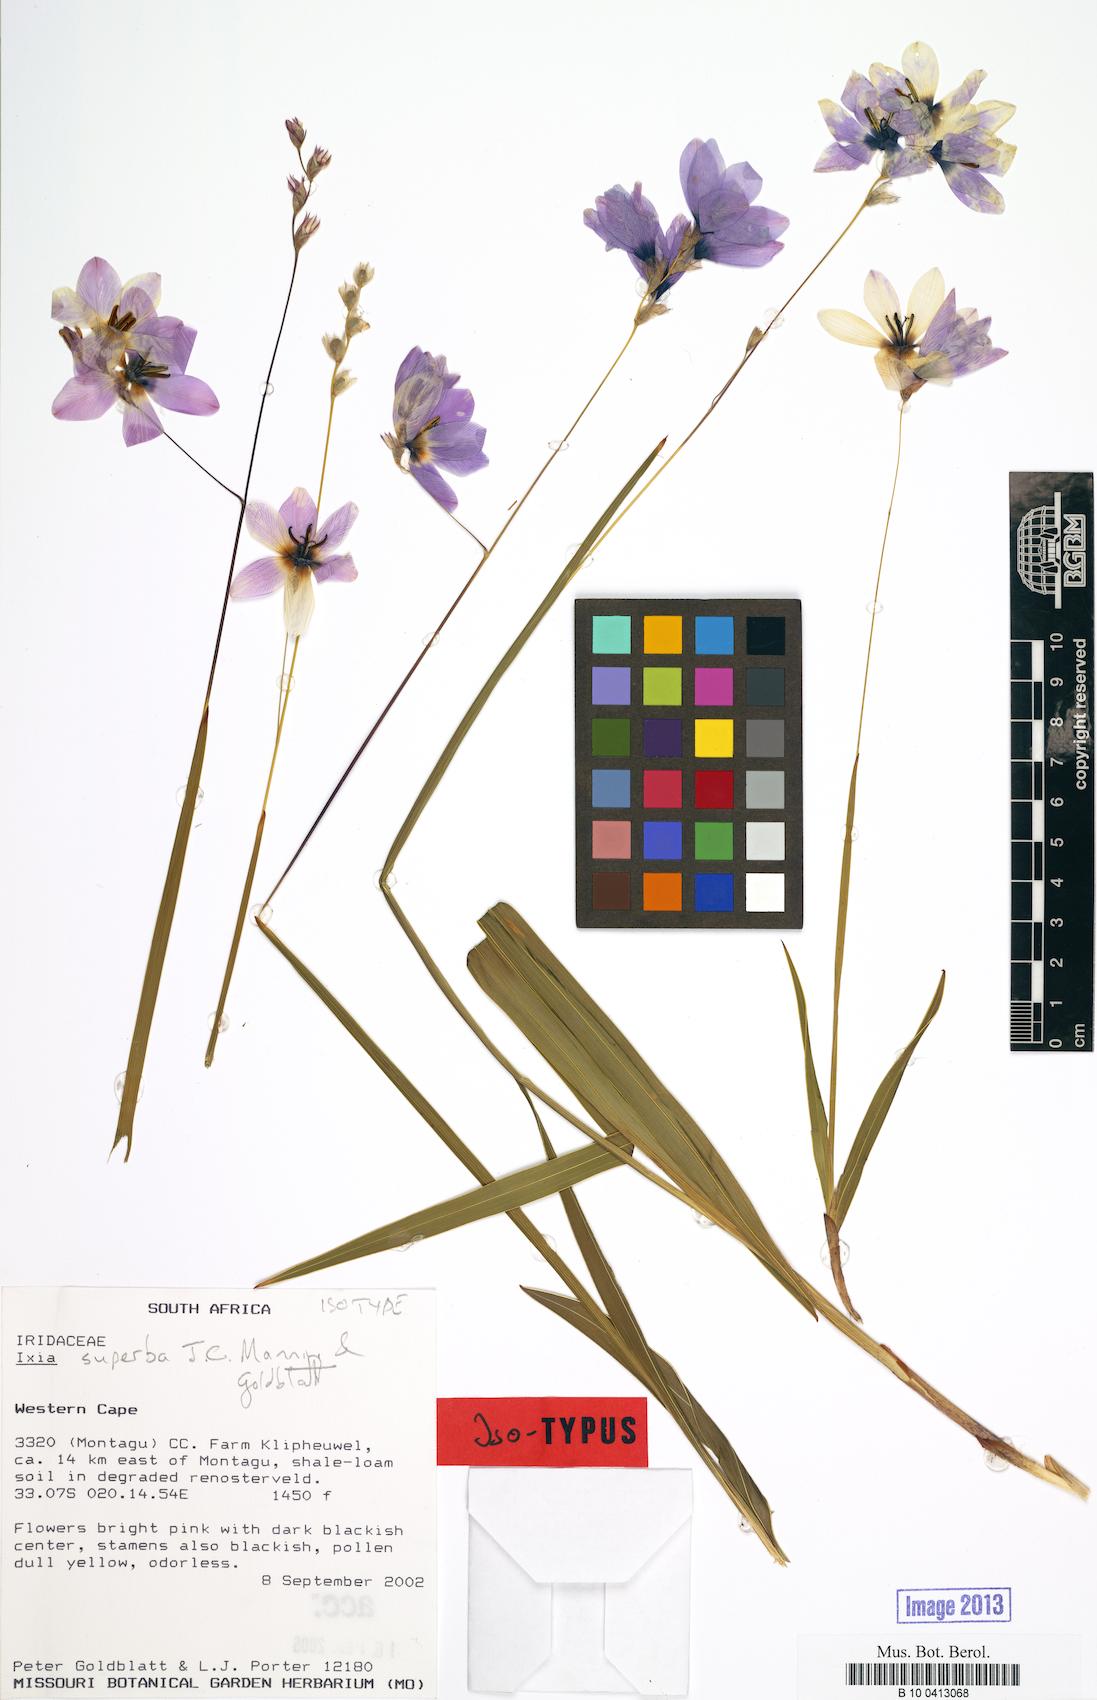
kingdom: Plantae
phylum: Tracheophyta
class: Liliopsida
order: Asparagales
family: Iridaceae
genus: Ixia
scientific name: Ixia superba
